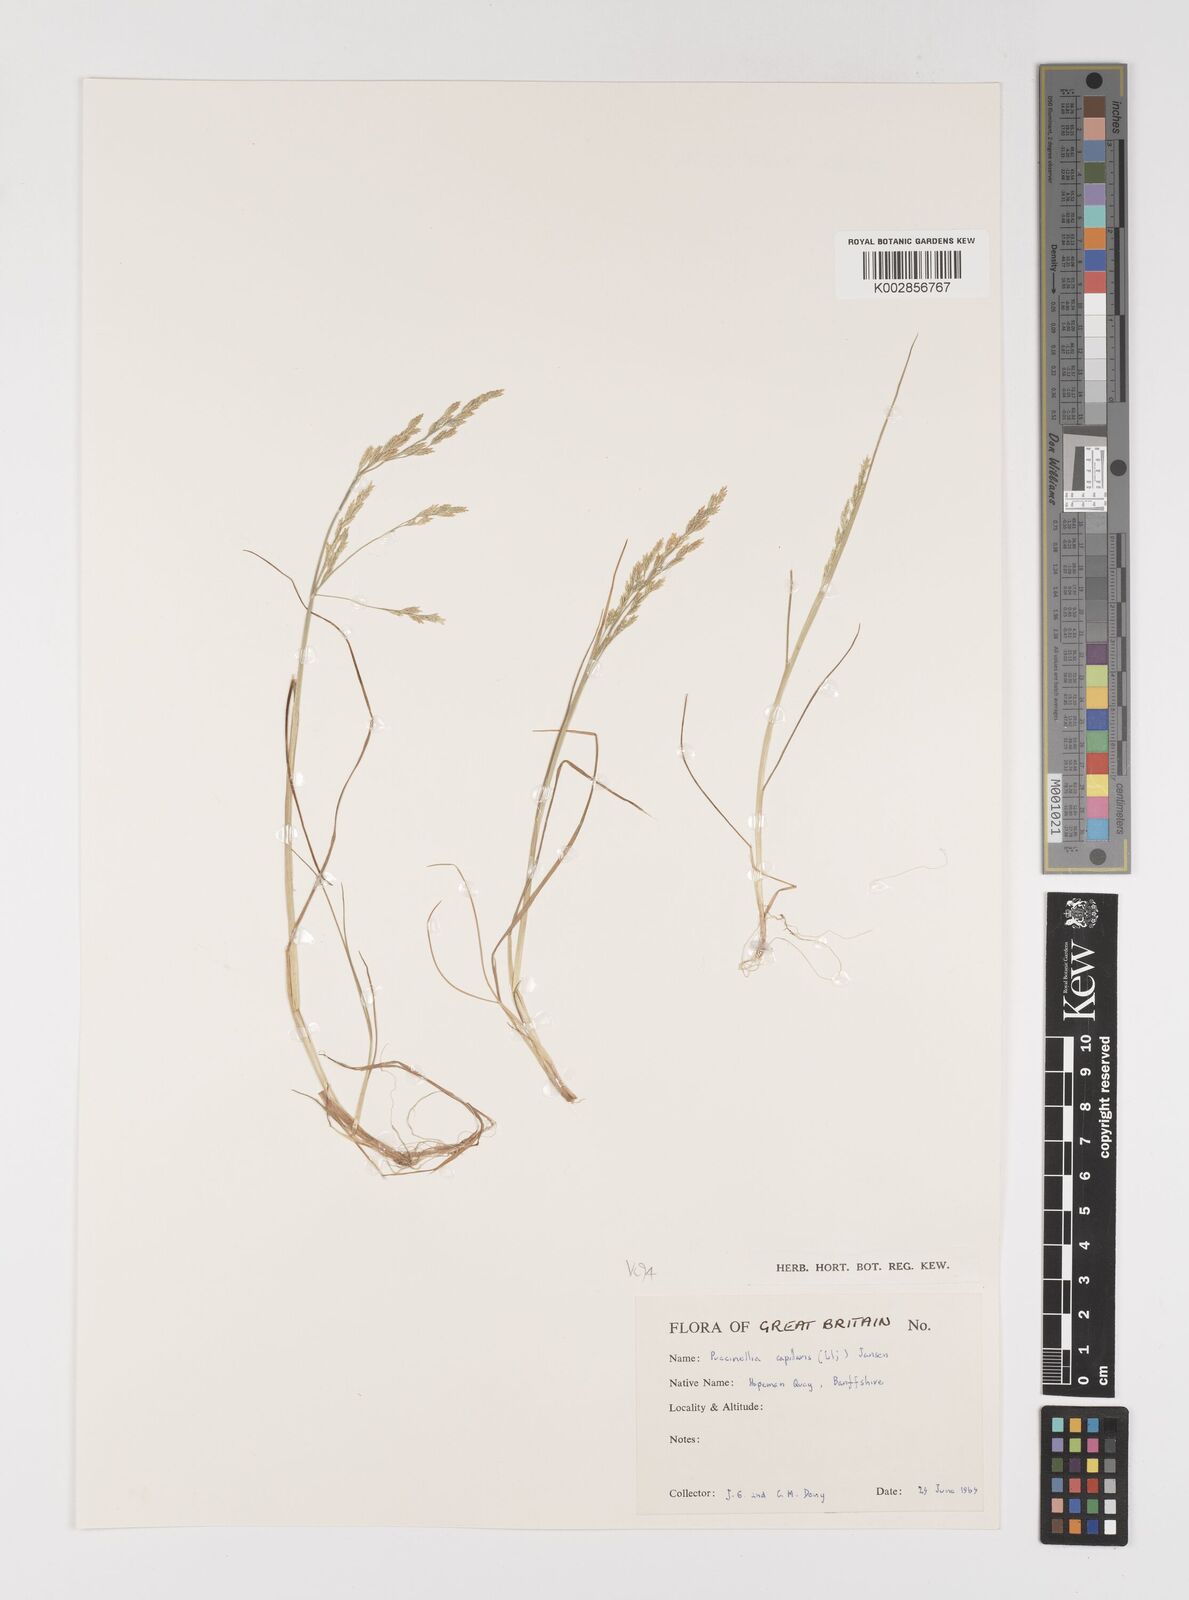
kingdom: Plantae
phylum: Tracheophyta
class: Liliopsida
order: Poales
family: Poaceae
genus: Puccinellia
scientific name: Puccinellia distans
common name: Weeping alkaligrass
